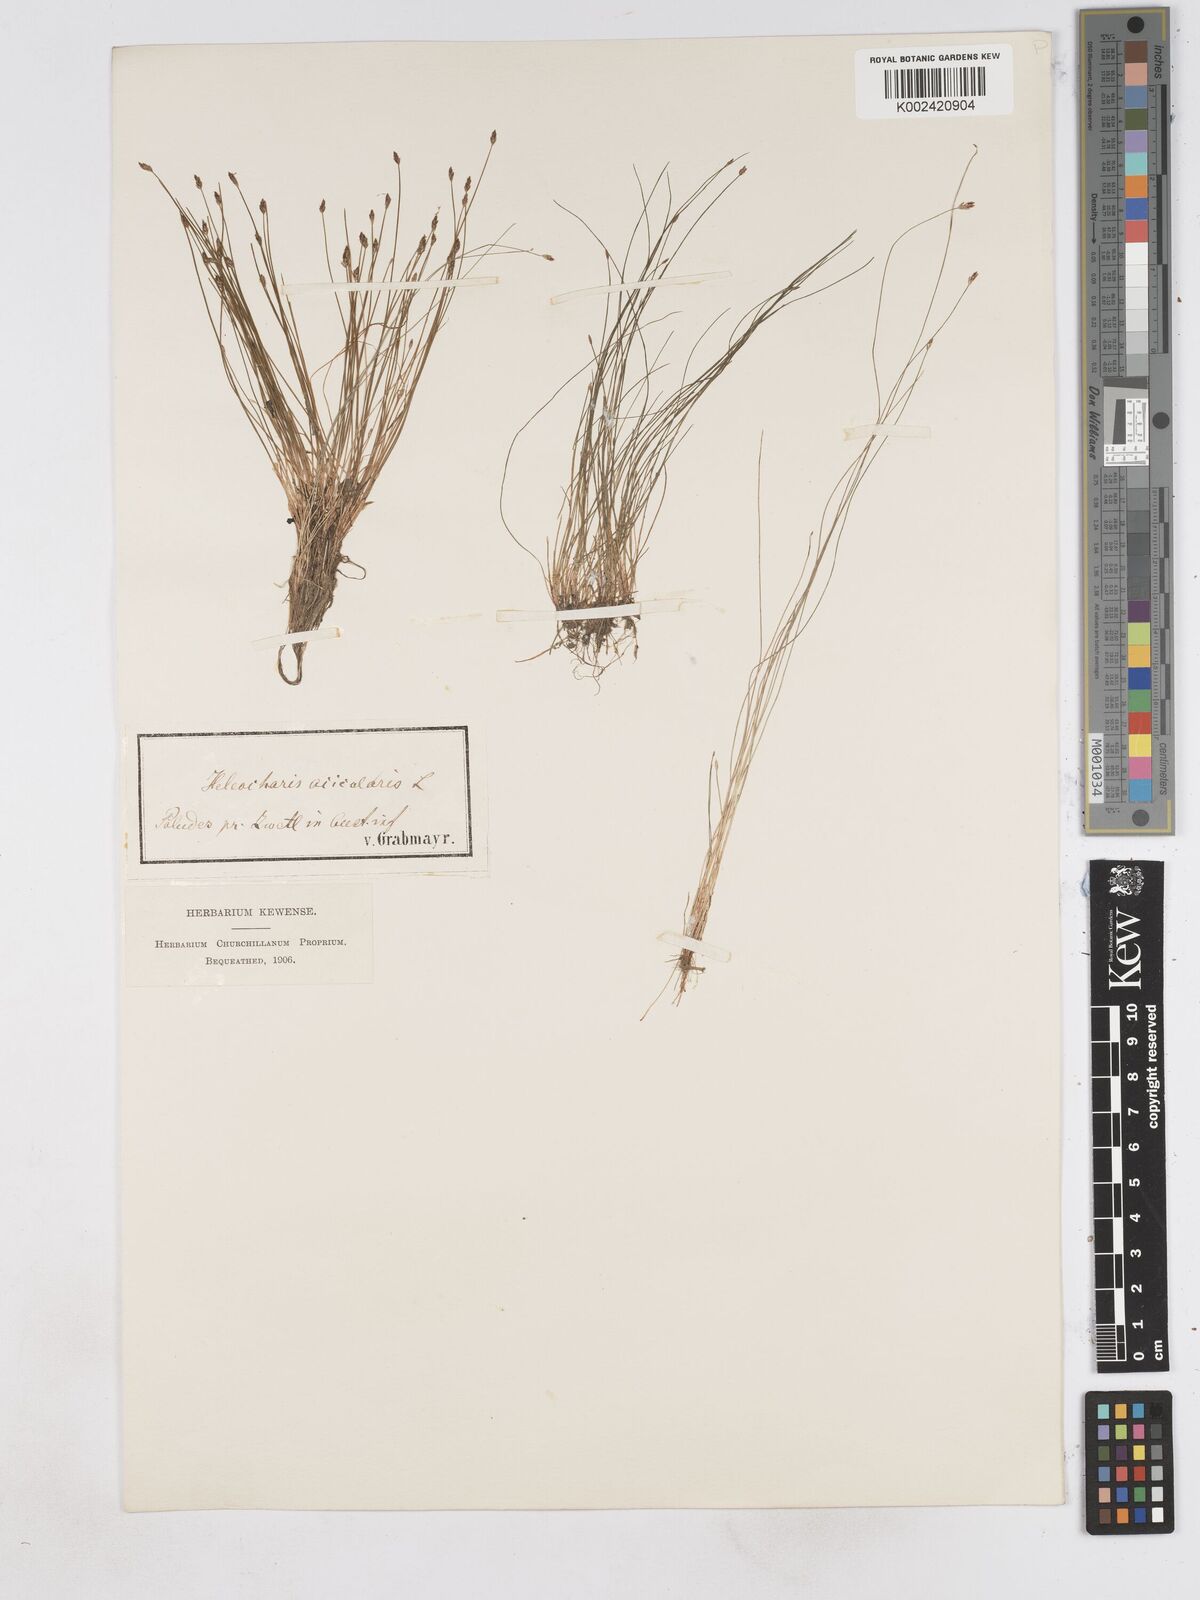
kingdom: Plantae
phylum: Tracheophyta
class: Liliopsida
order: Poales
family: Cyperaceae
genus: Eleocharis
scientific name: Eleocharis acicularis
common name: Needle spike-rush
